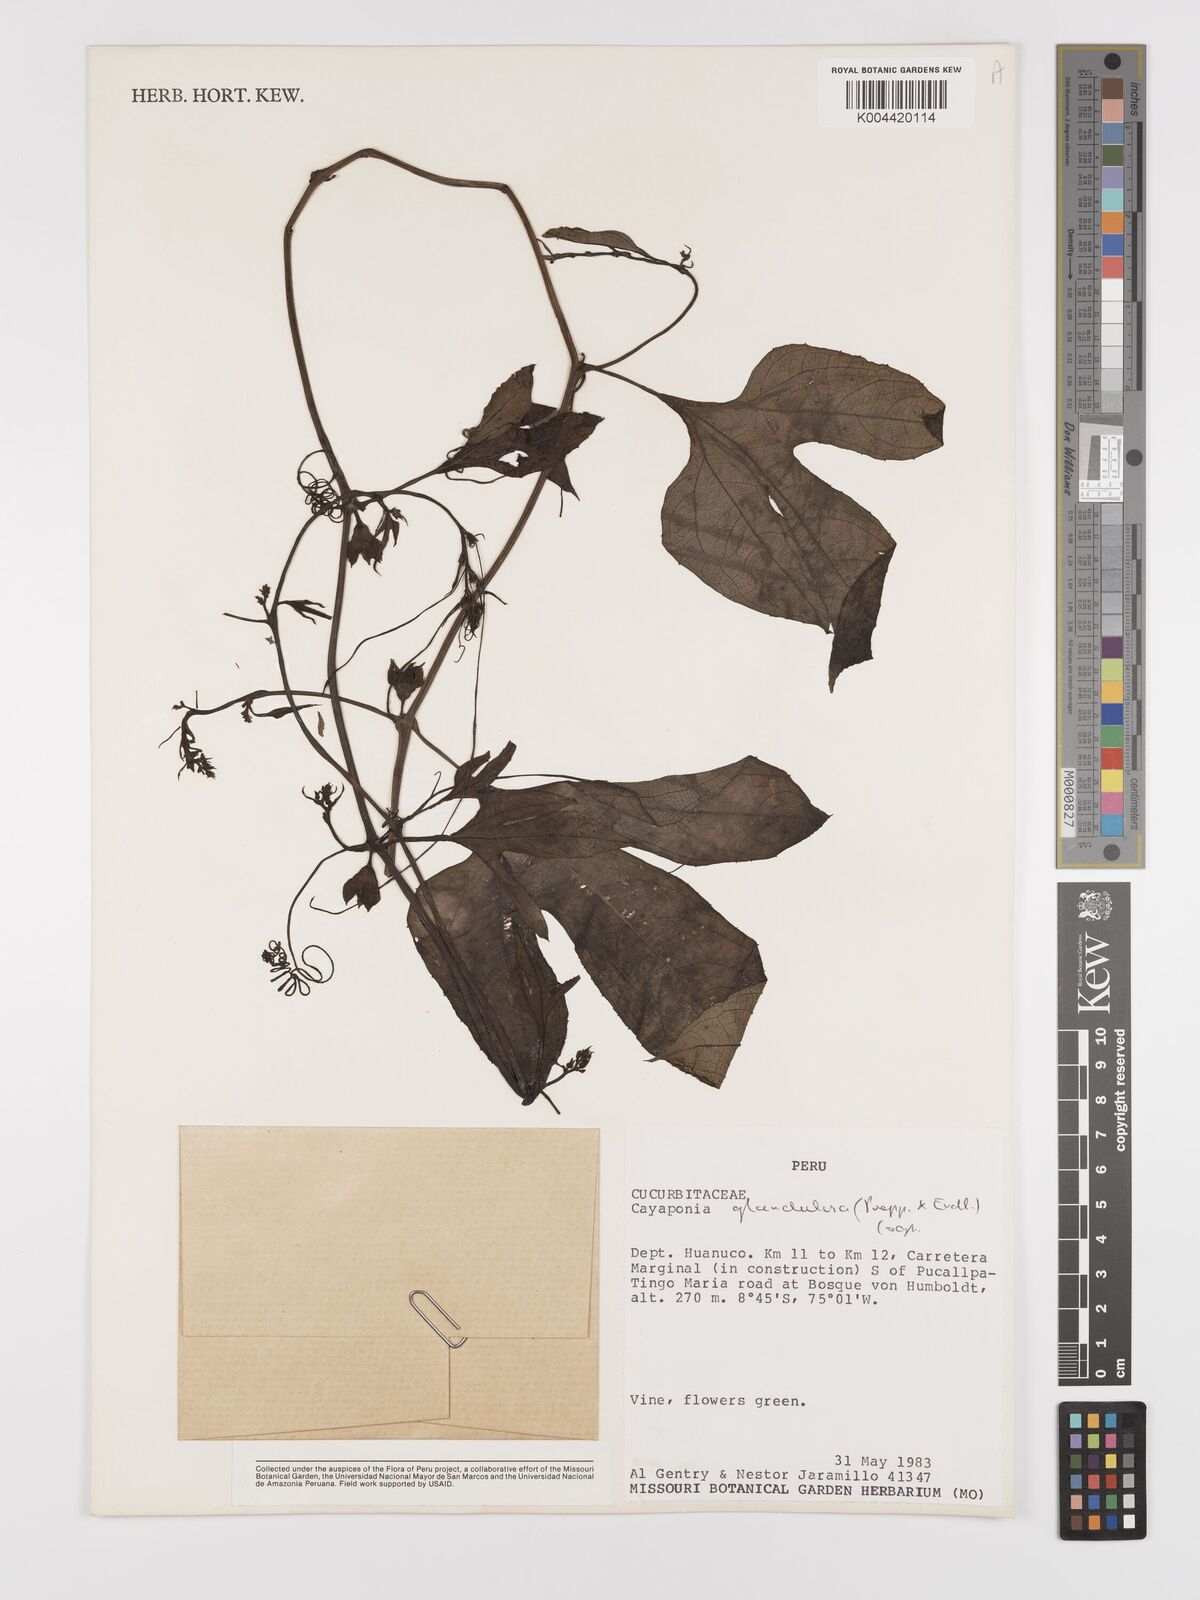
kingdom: Plantae
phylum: Tracheophyta
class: Magnoliopsida
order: Cucurbitales
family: Cucurbitaceae
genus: Cayaponia
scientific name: Cayaponia glandulosa
